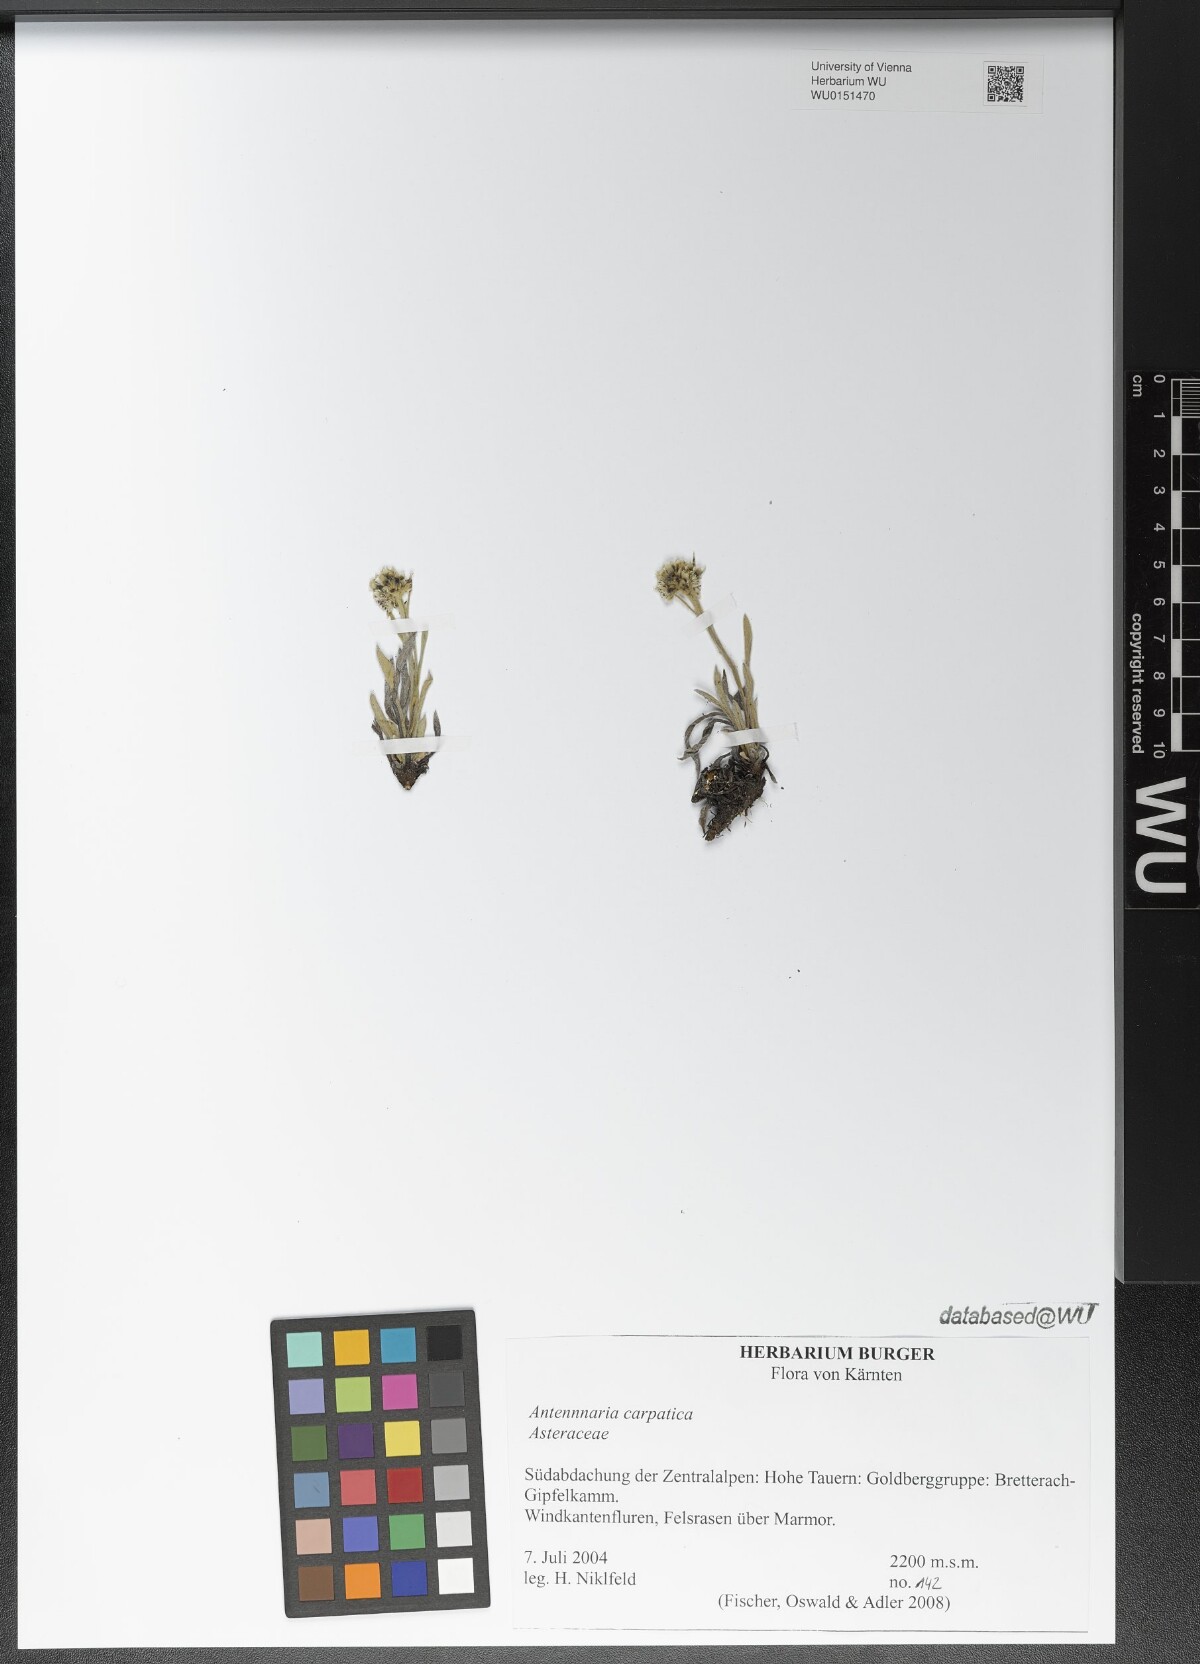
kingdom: Plantae
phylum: Tracheophyta
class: Magnoliopsida
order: Asterales
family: Asteraceae
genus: Antennaria
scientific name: Antennaria carpatica
